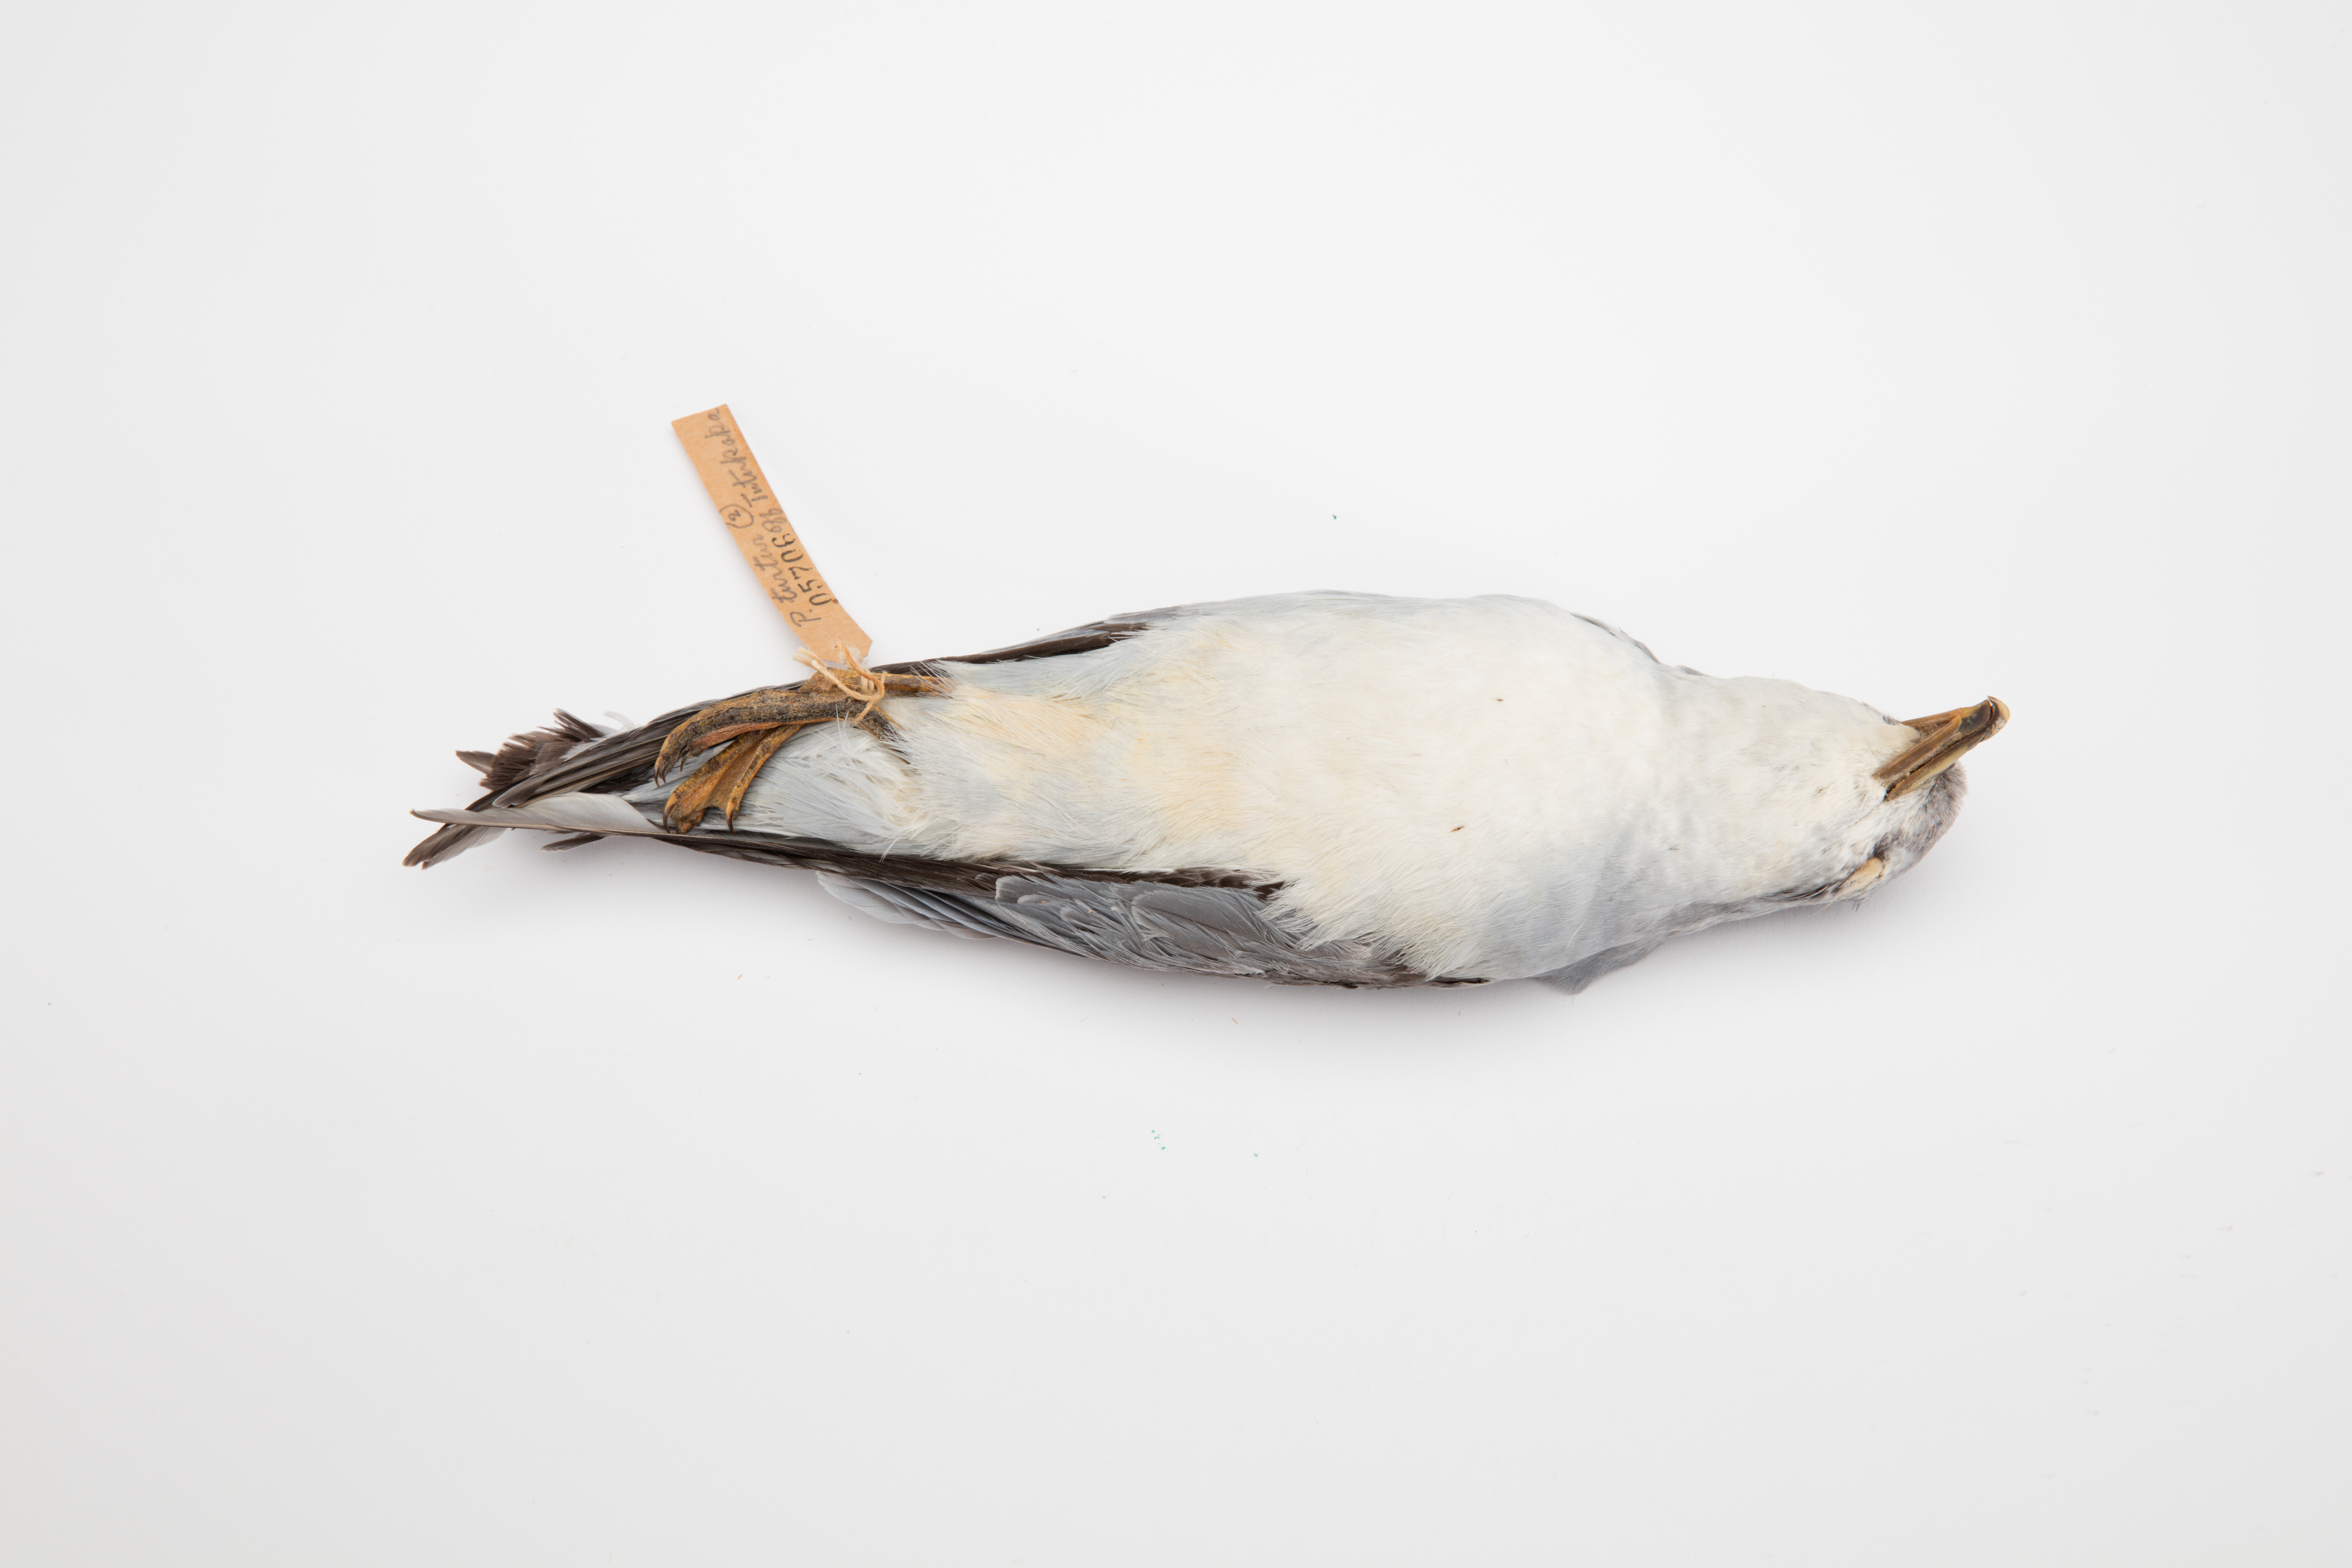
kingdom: Animalia
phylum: Chordata
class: Aves
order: Procellariiformes
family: Procellariidae
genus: Pachyptila
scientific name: Pachyptila turtur
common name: Fairy prion
